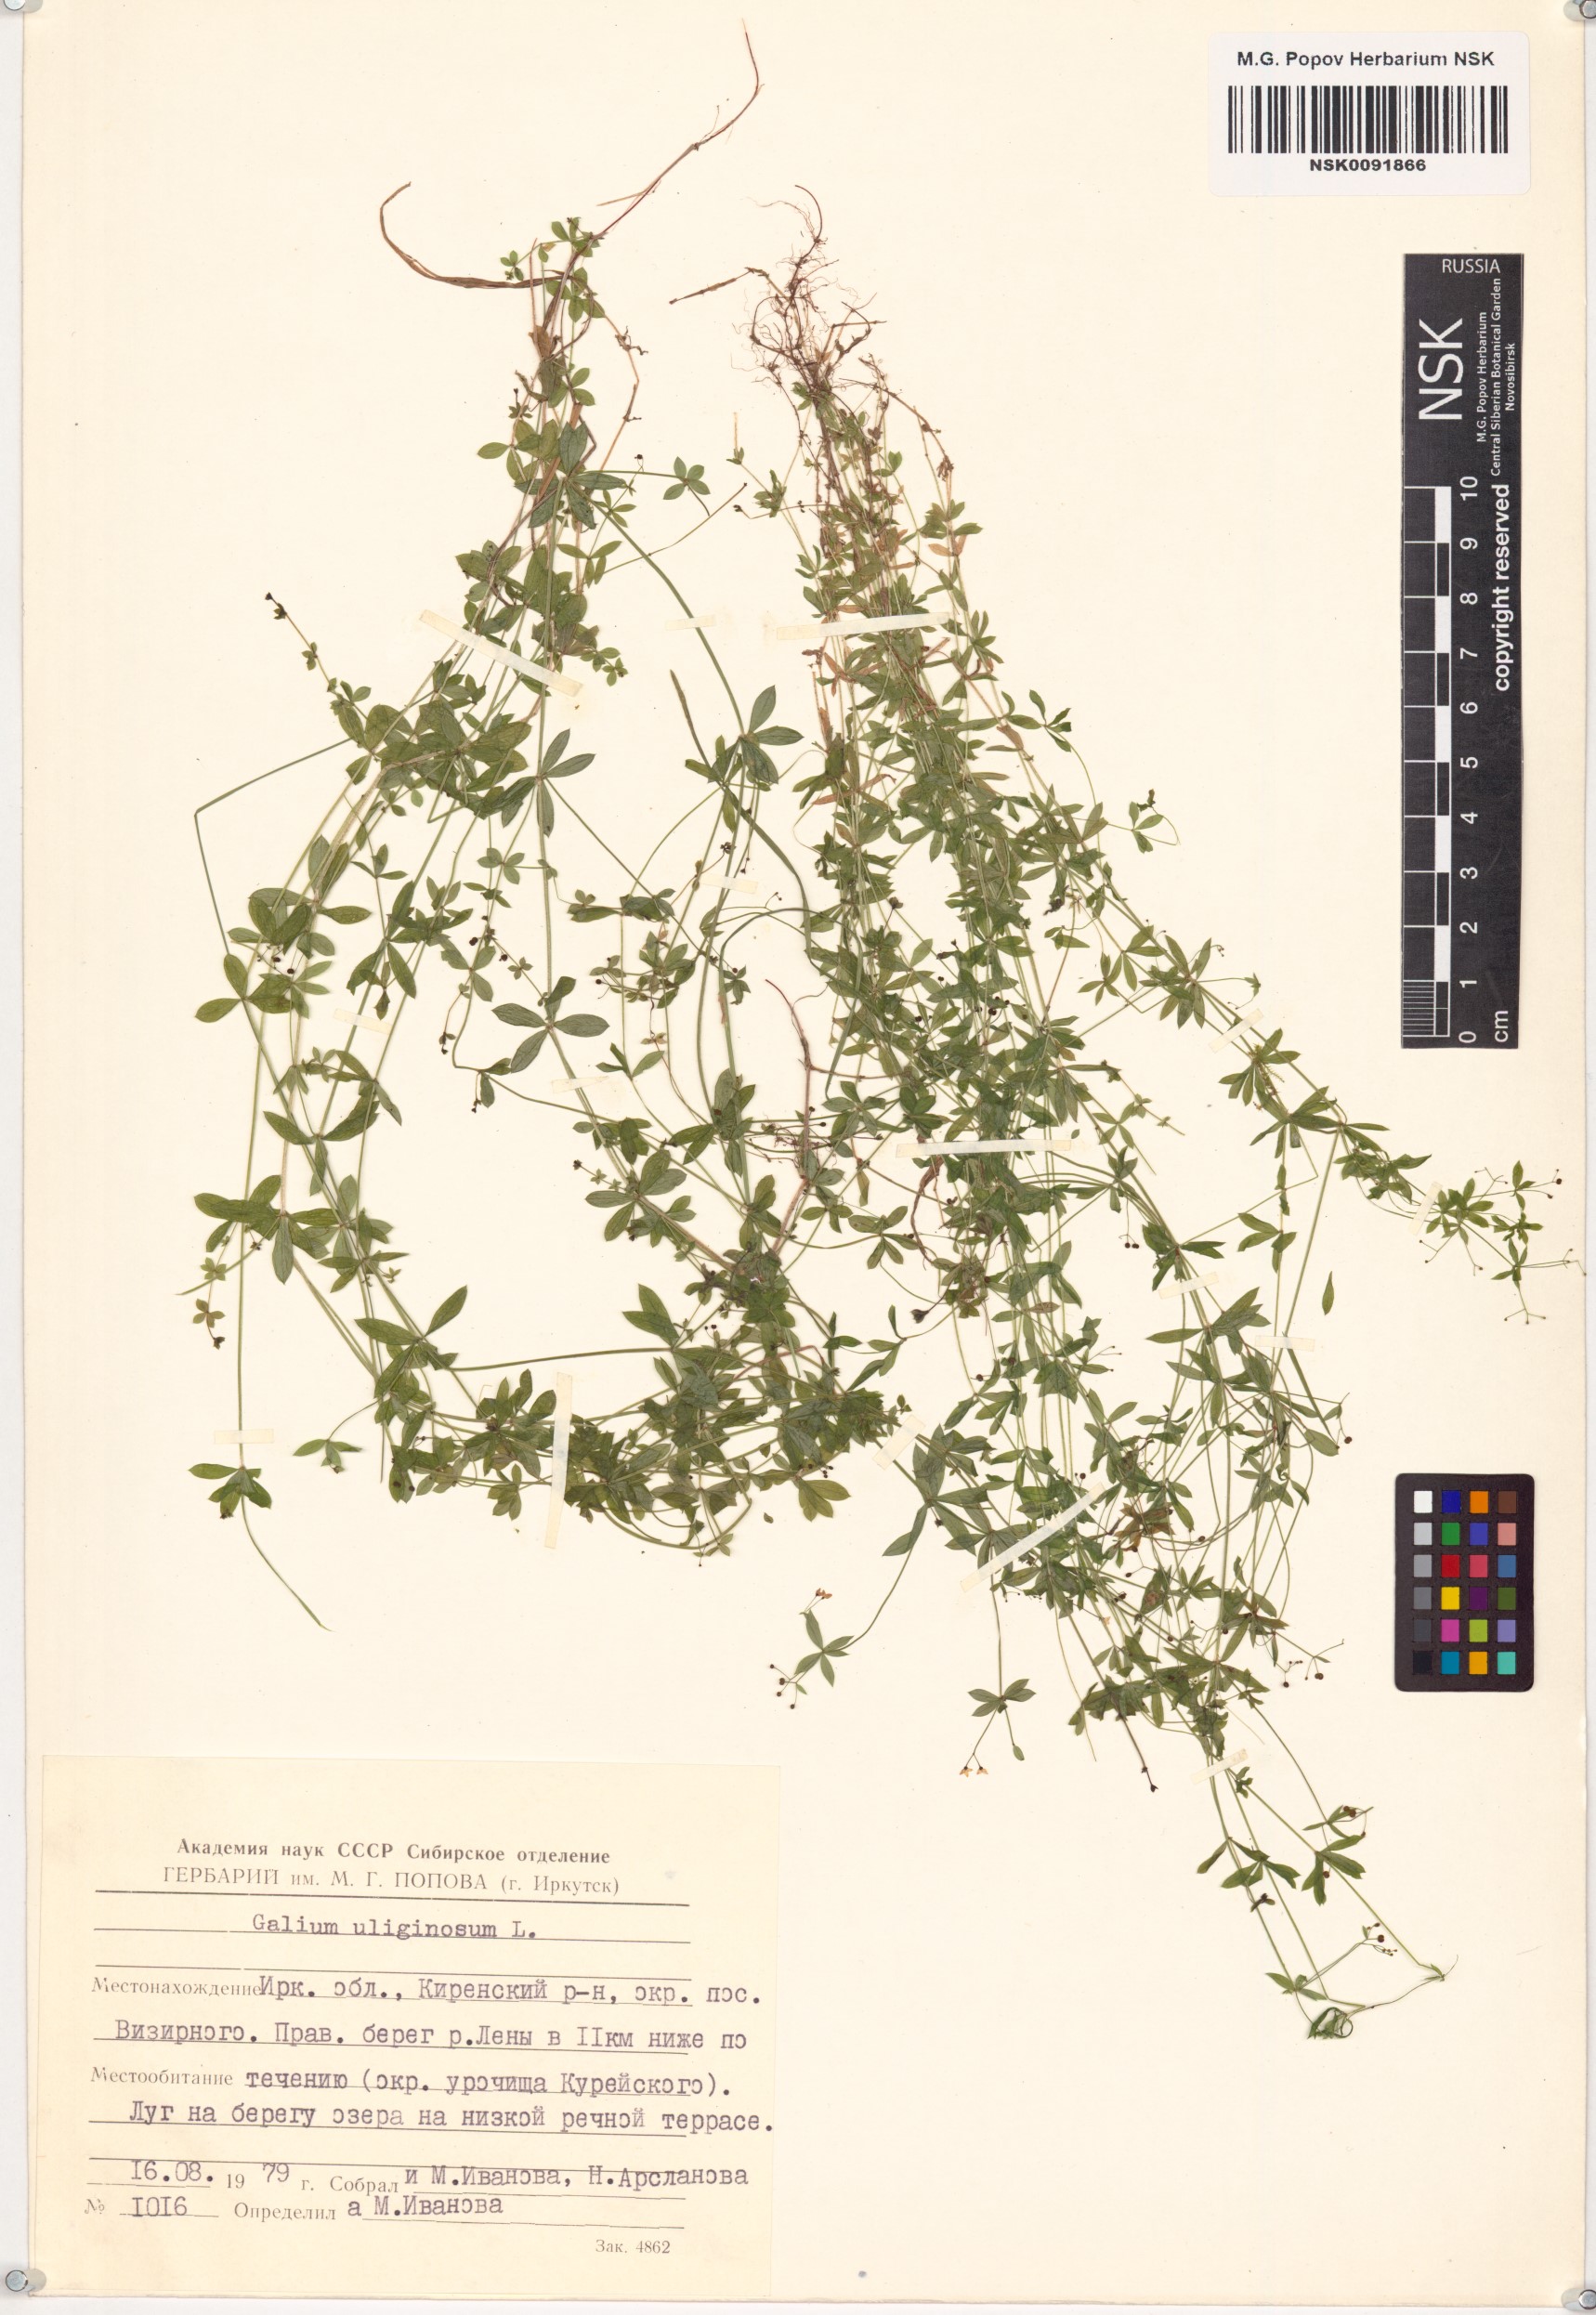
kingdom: Plantae
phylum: Tracheophyta
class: Magnoliopsida
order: Gentianales
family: Rubiaceae
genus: Galium
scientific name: Galium uliginosum
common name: Fen bedstraw
